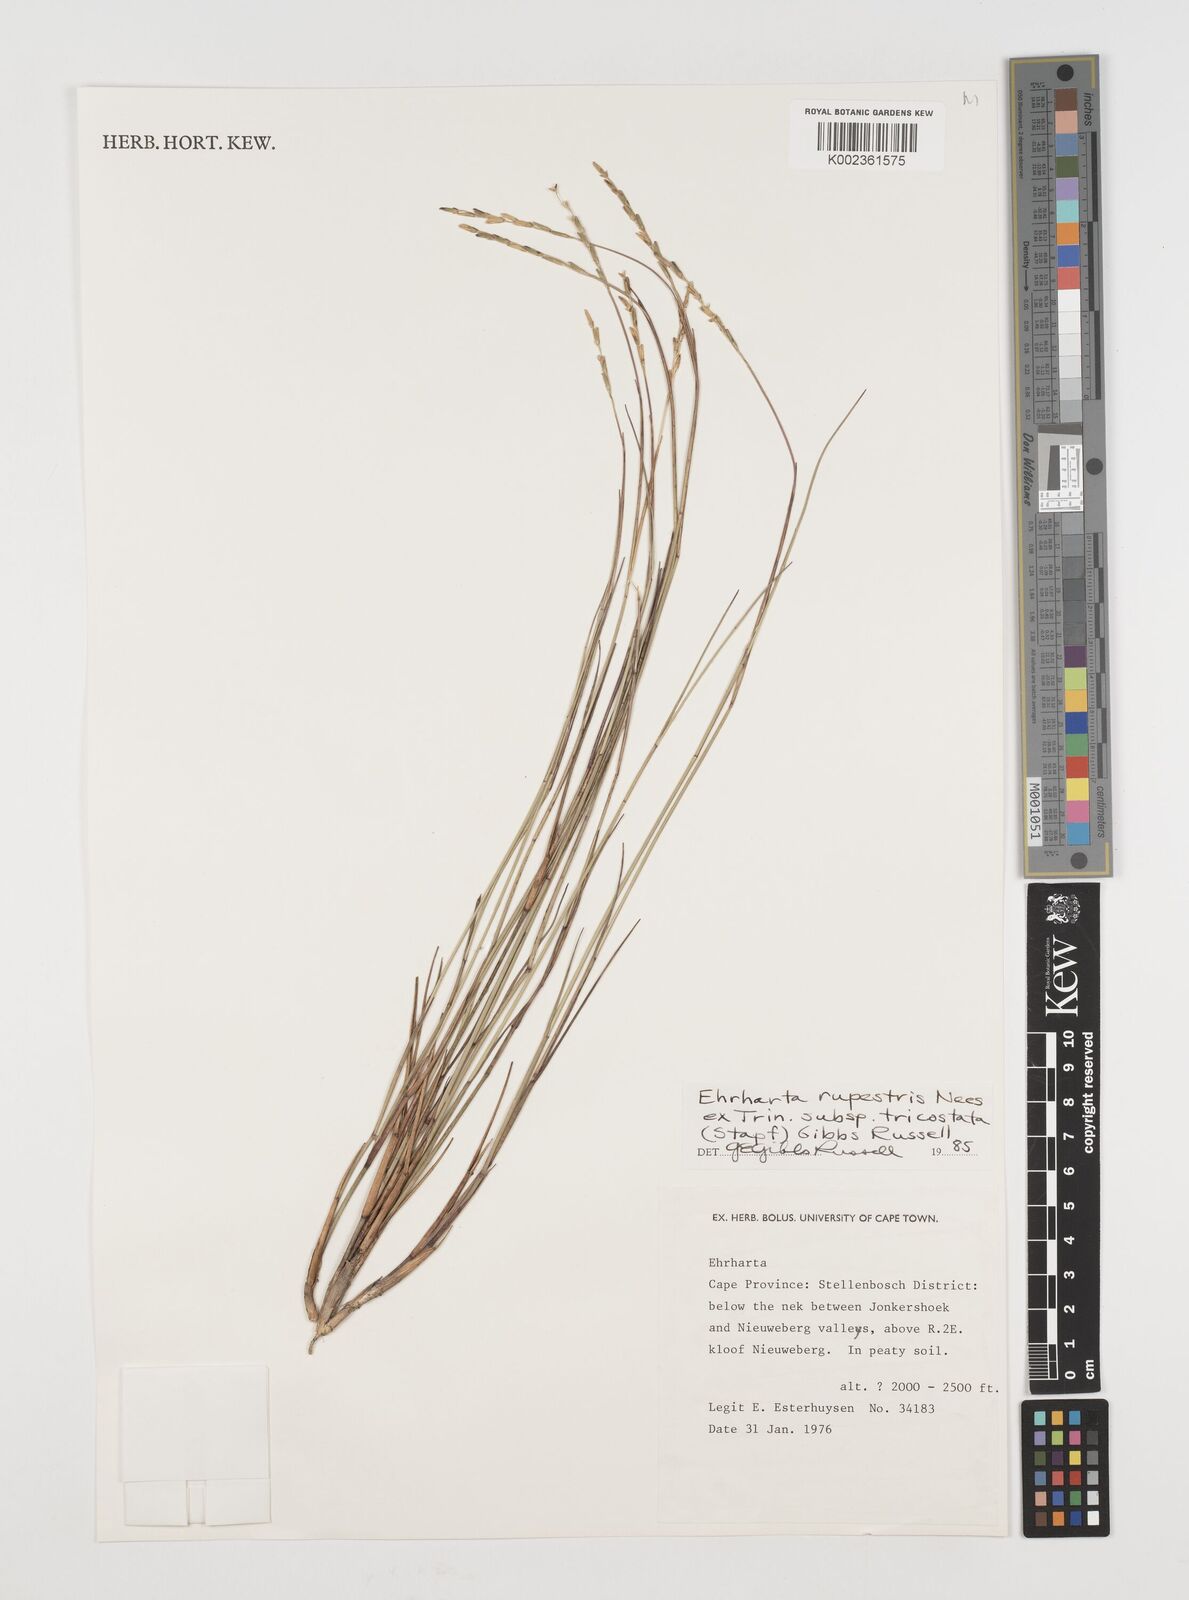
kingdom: Plantae
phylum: Tracheophyta
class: Liliopsida
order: Poales
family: Poaceae
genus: Ehrharta
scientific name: Ehrharta rupestris
